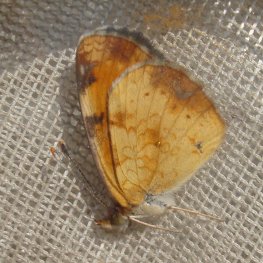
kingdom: Animalia
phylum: Arthropoda
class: Insecta
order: Lepidoptera
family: Nymphalidae
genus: Phyciodes
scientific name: Phyciodes tharos
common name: Northern Crescent
